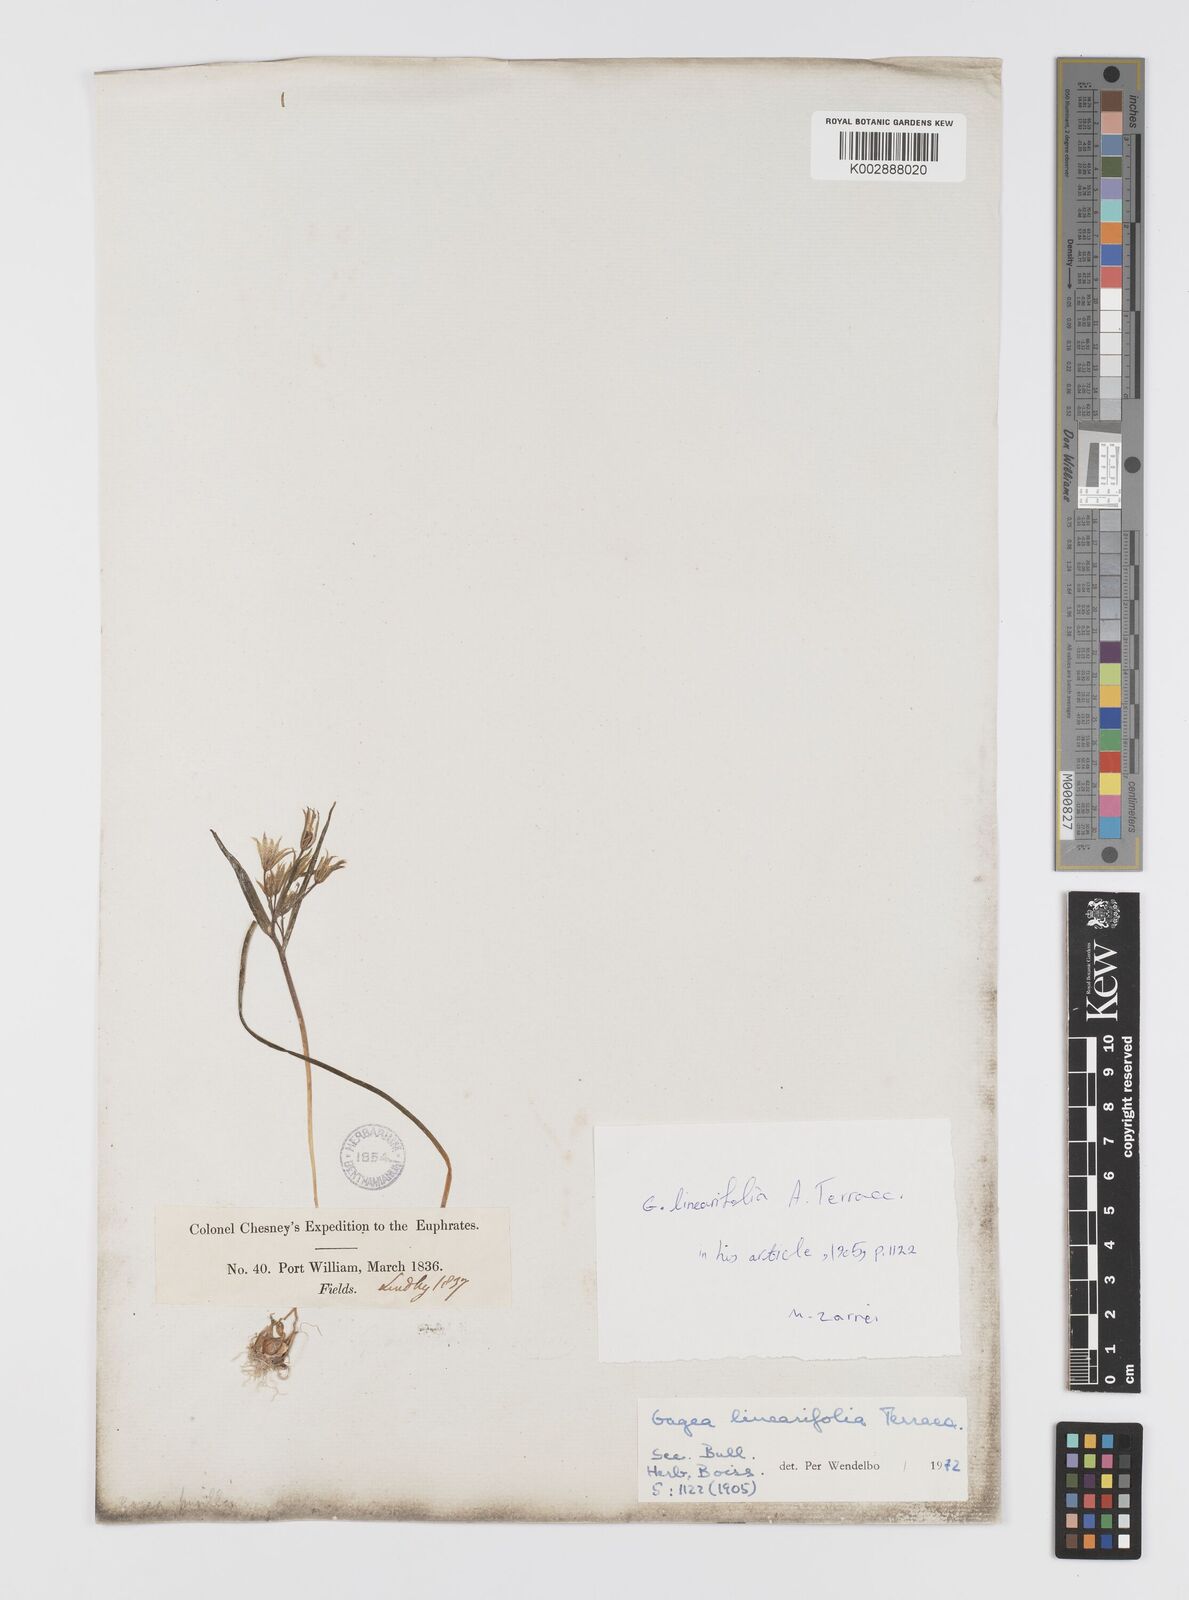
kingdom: Plantae
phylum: Tracheophyta
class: Liliopsida
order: Liliales
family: Liliaceae
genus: Gagea
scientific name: Gagea luteoides
